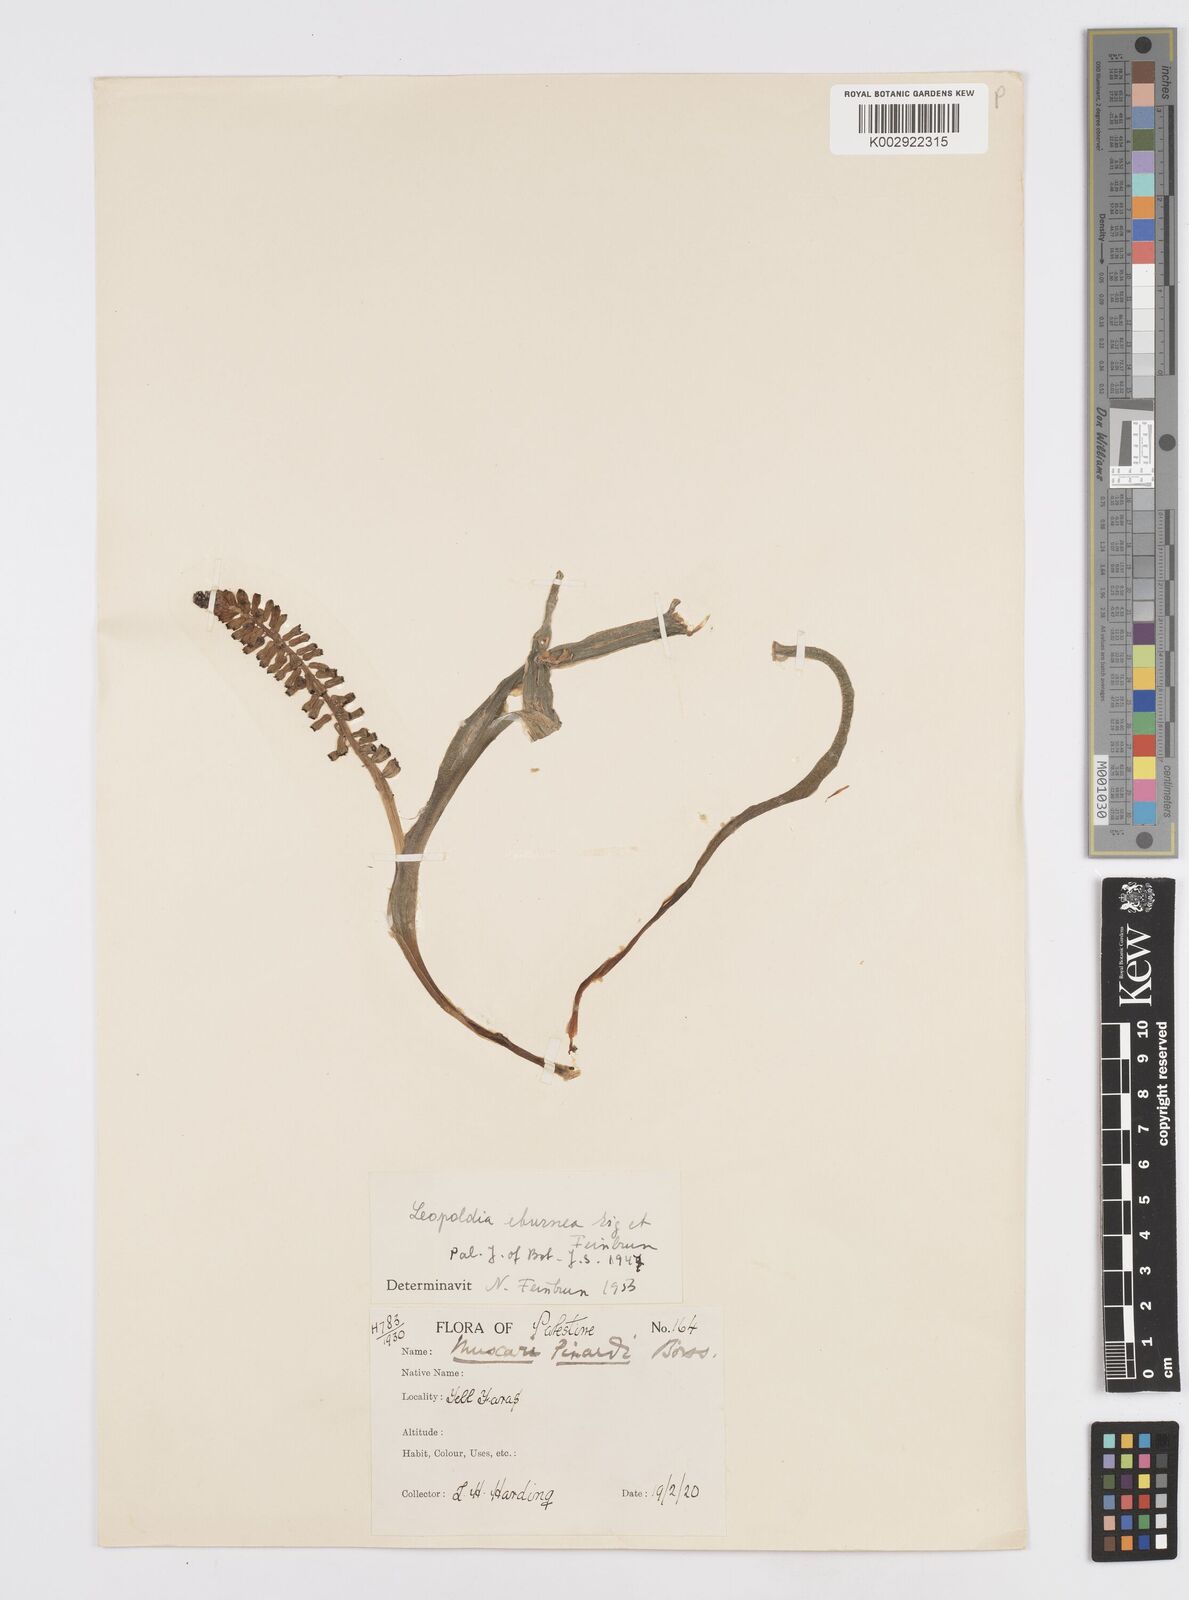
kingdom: Plantae
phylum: Tracheophyta
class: Liliopsida
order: Asparagales
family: Asparagaceae
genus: Muscari
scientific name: Muscari eburneum
